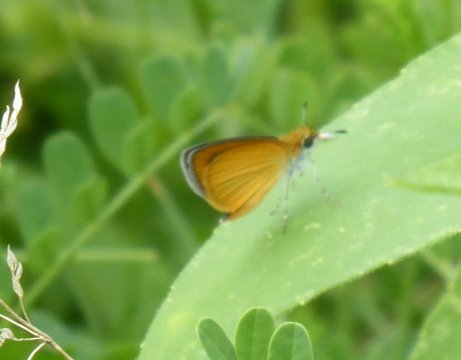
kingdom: Animalia
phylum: Arthropoda
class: Insecta
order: Lepidoptera
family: Hesperiidae
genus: Ancyloxypha
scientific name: Ancyloxypha numitor
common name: Least Skipper
